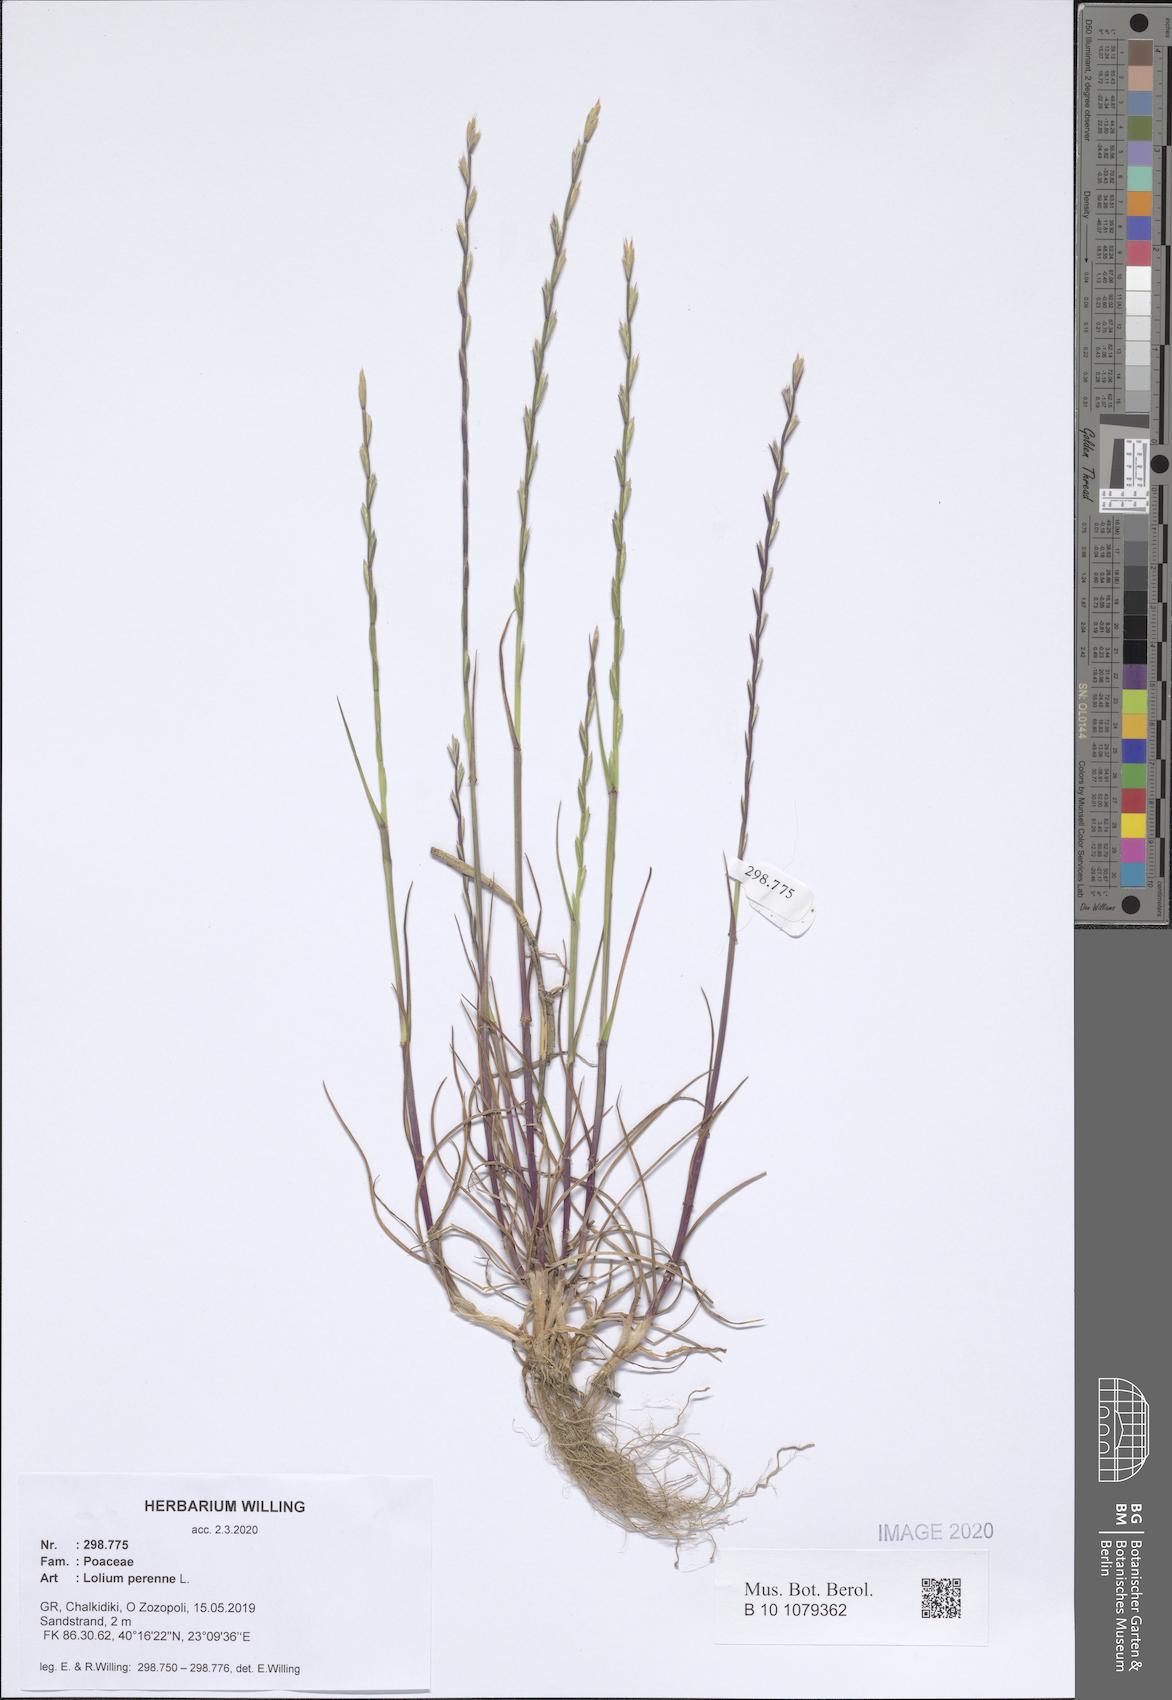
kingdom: Plantae
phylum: Tracheophyta
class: Liliopsida
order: Poales
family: Poaceae
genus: Lolium
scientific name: Lolium perenne
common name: Perennial ryegrass
